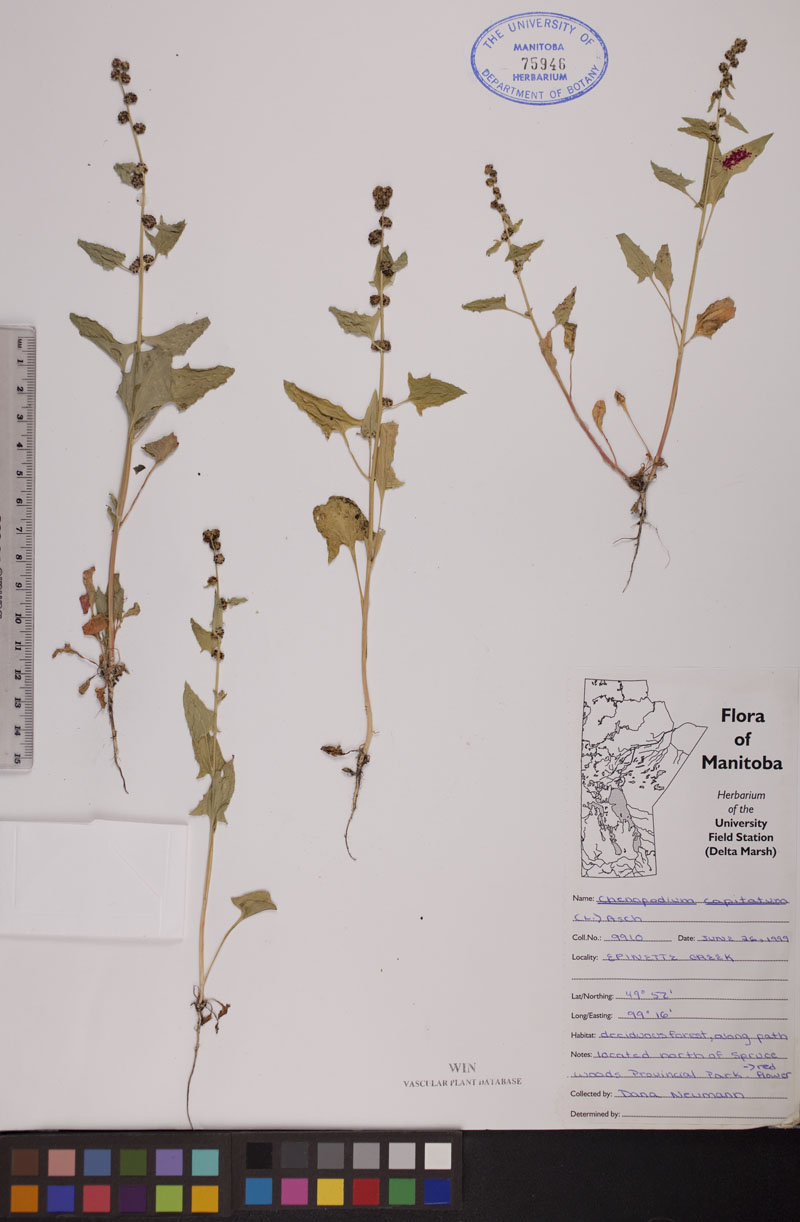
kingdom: Plantae
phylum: Tracheophyta
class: Magnoliopsida
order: Caryophyllales
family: Amaranthaceae
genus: Blitum
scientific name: Blitum capitatum
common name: Strawberry-blight
